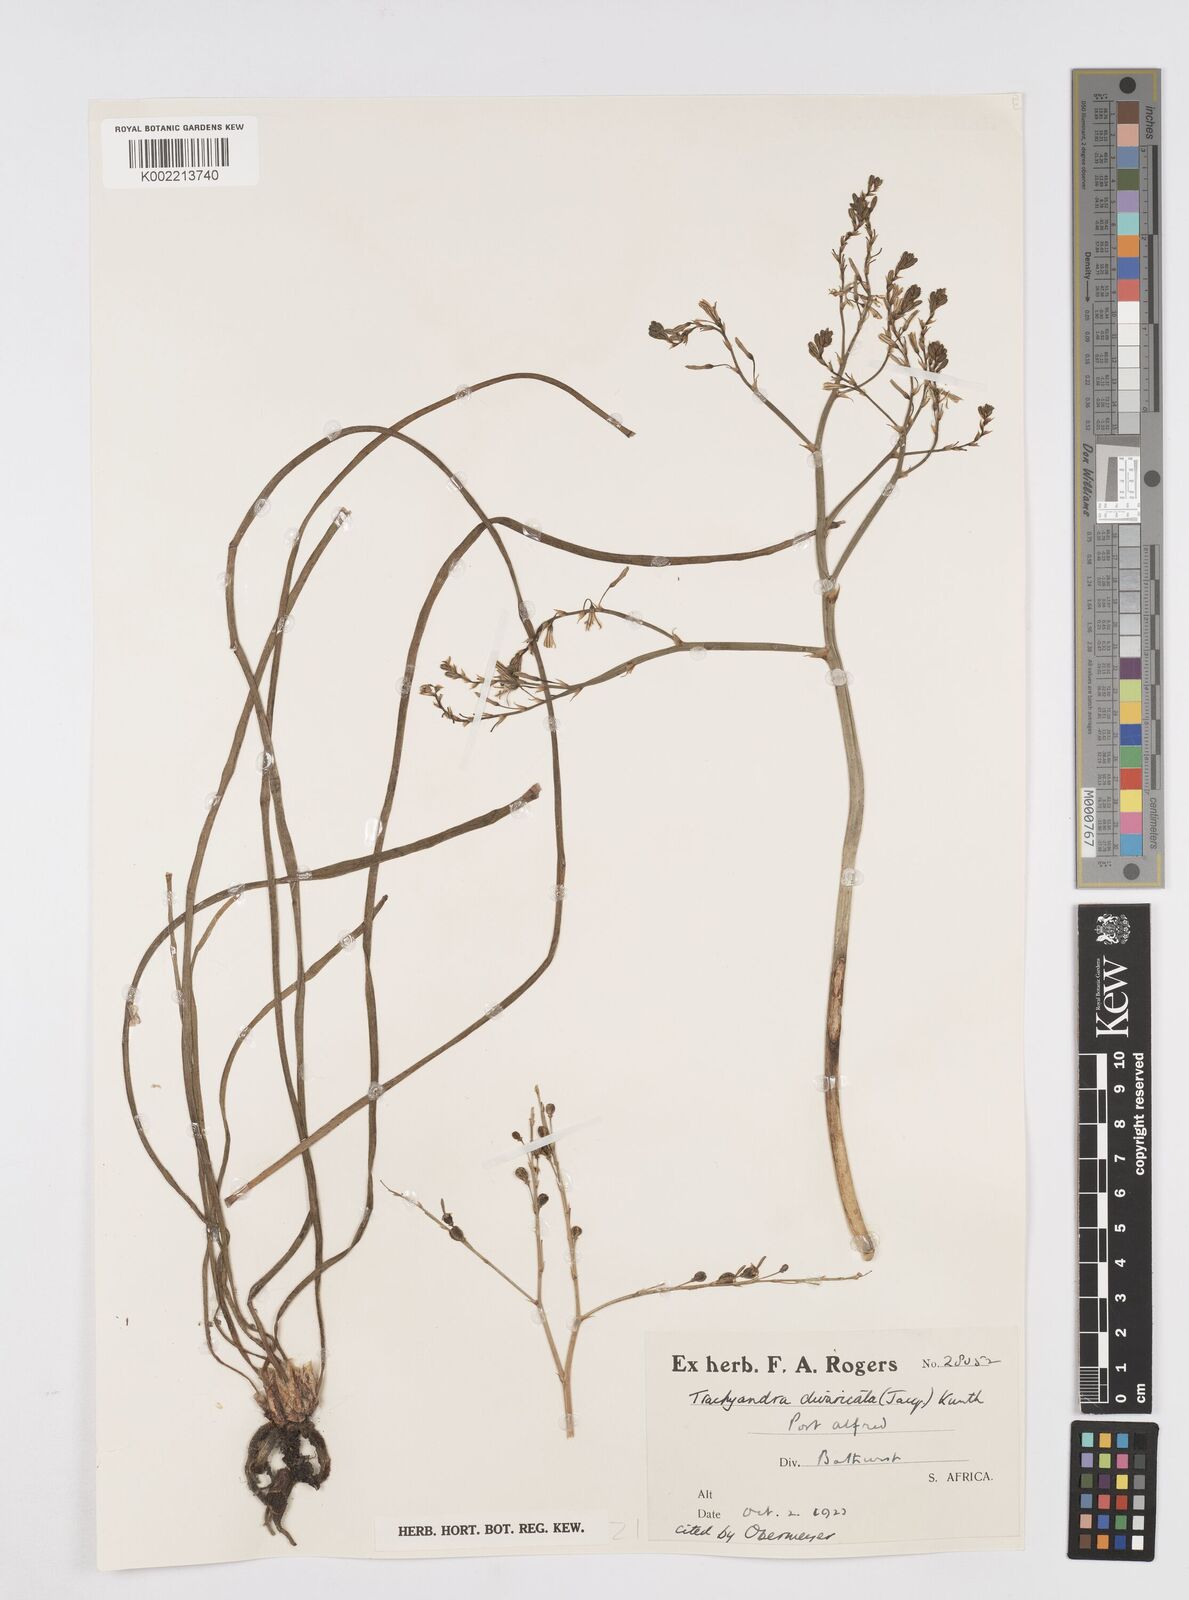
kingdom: Plantae
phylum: Tracheophyta
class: Liliopsida
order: Asparagales
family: Asphodelaceae
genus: Trachyandra
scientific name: Trachyandra divaricata
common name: Dune onionweed
